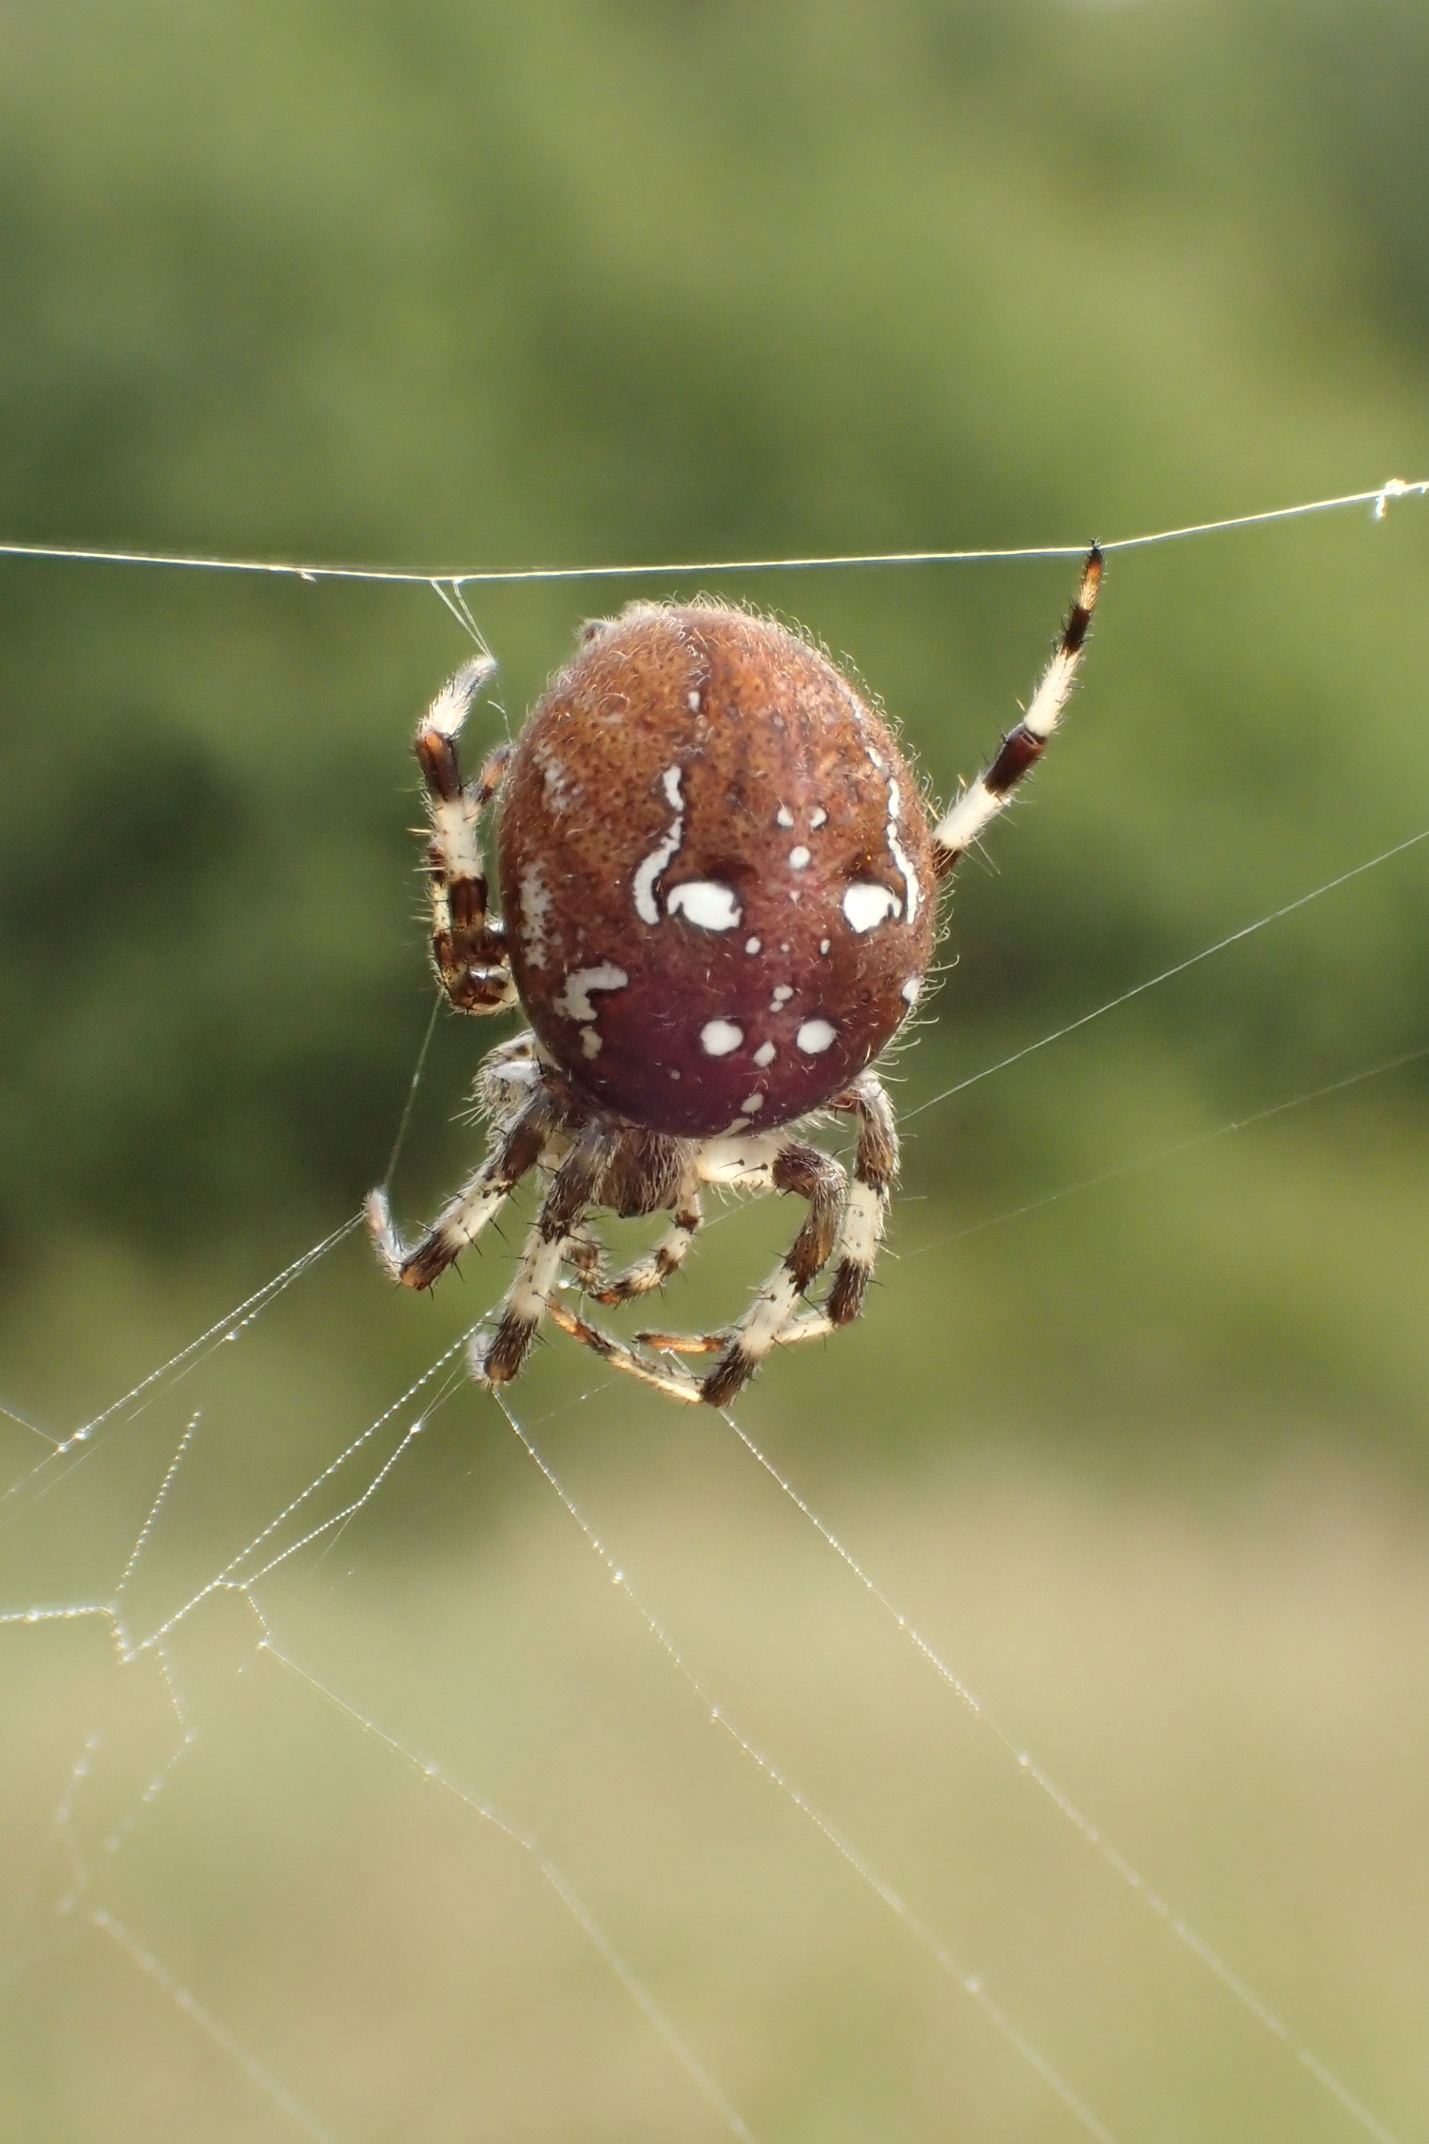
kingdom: Animalia
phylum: Arthropoda
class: Arachnida
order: Araneae
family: Araneidae
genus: Araneus
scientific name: Araneus quadratus
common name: Kvadratedderkop
